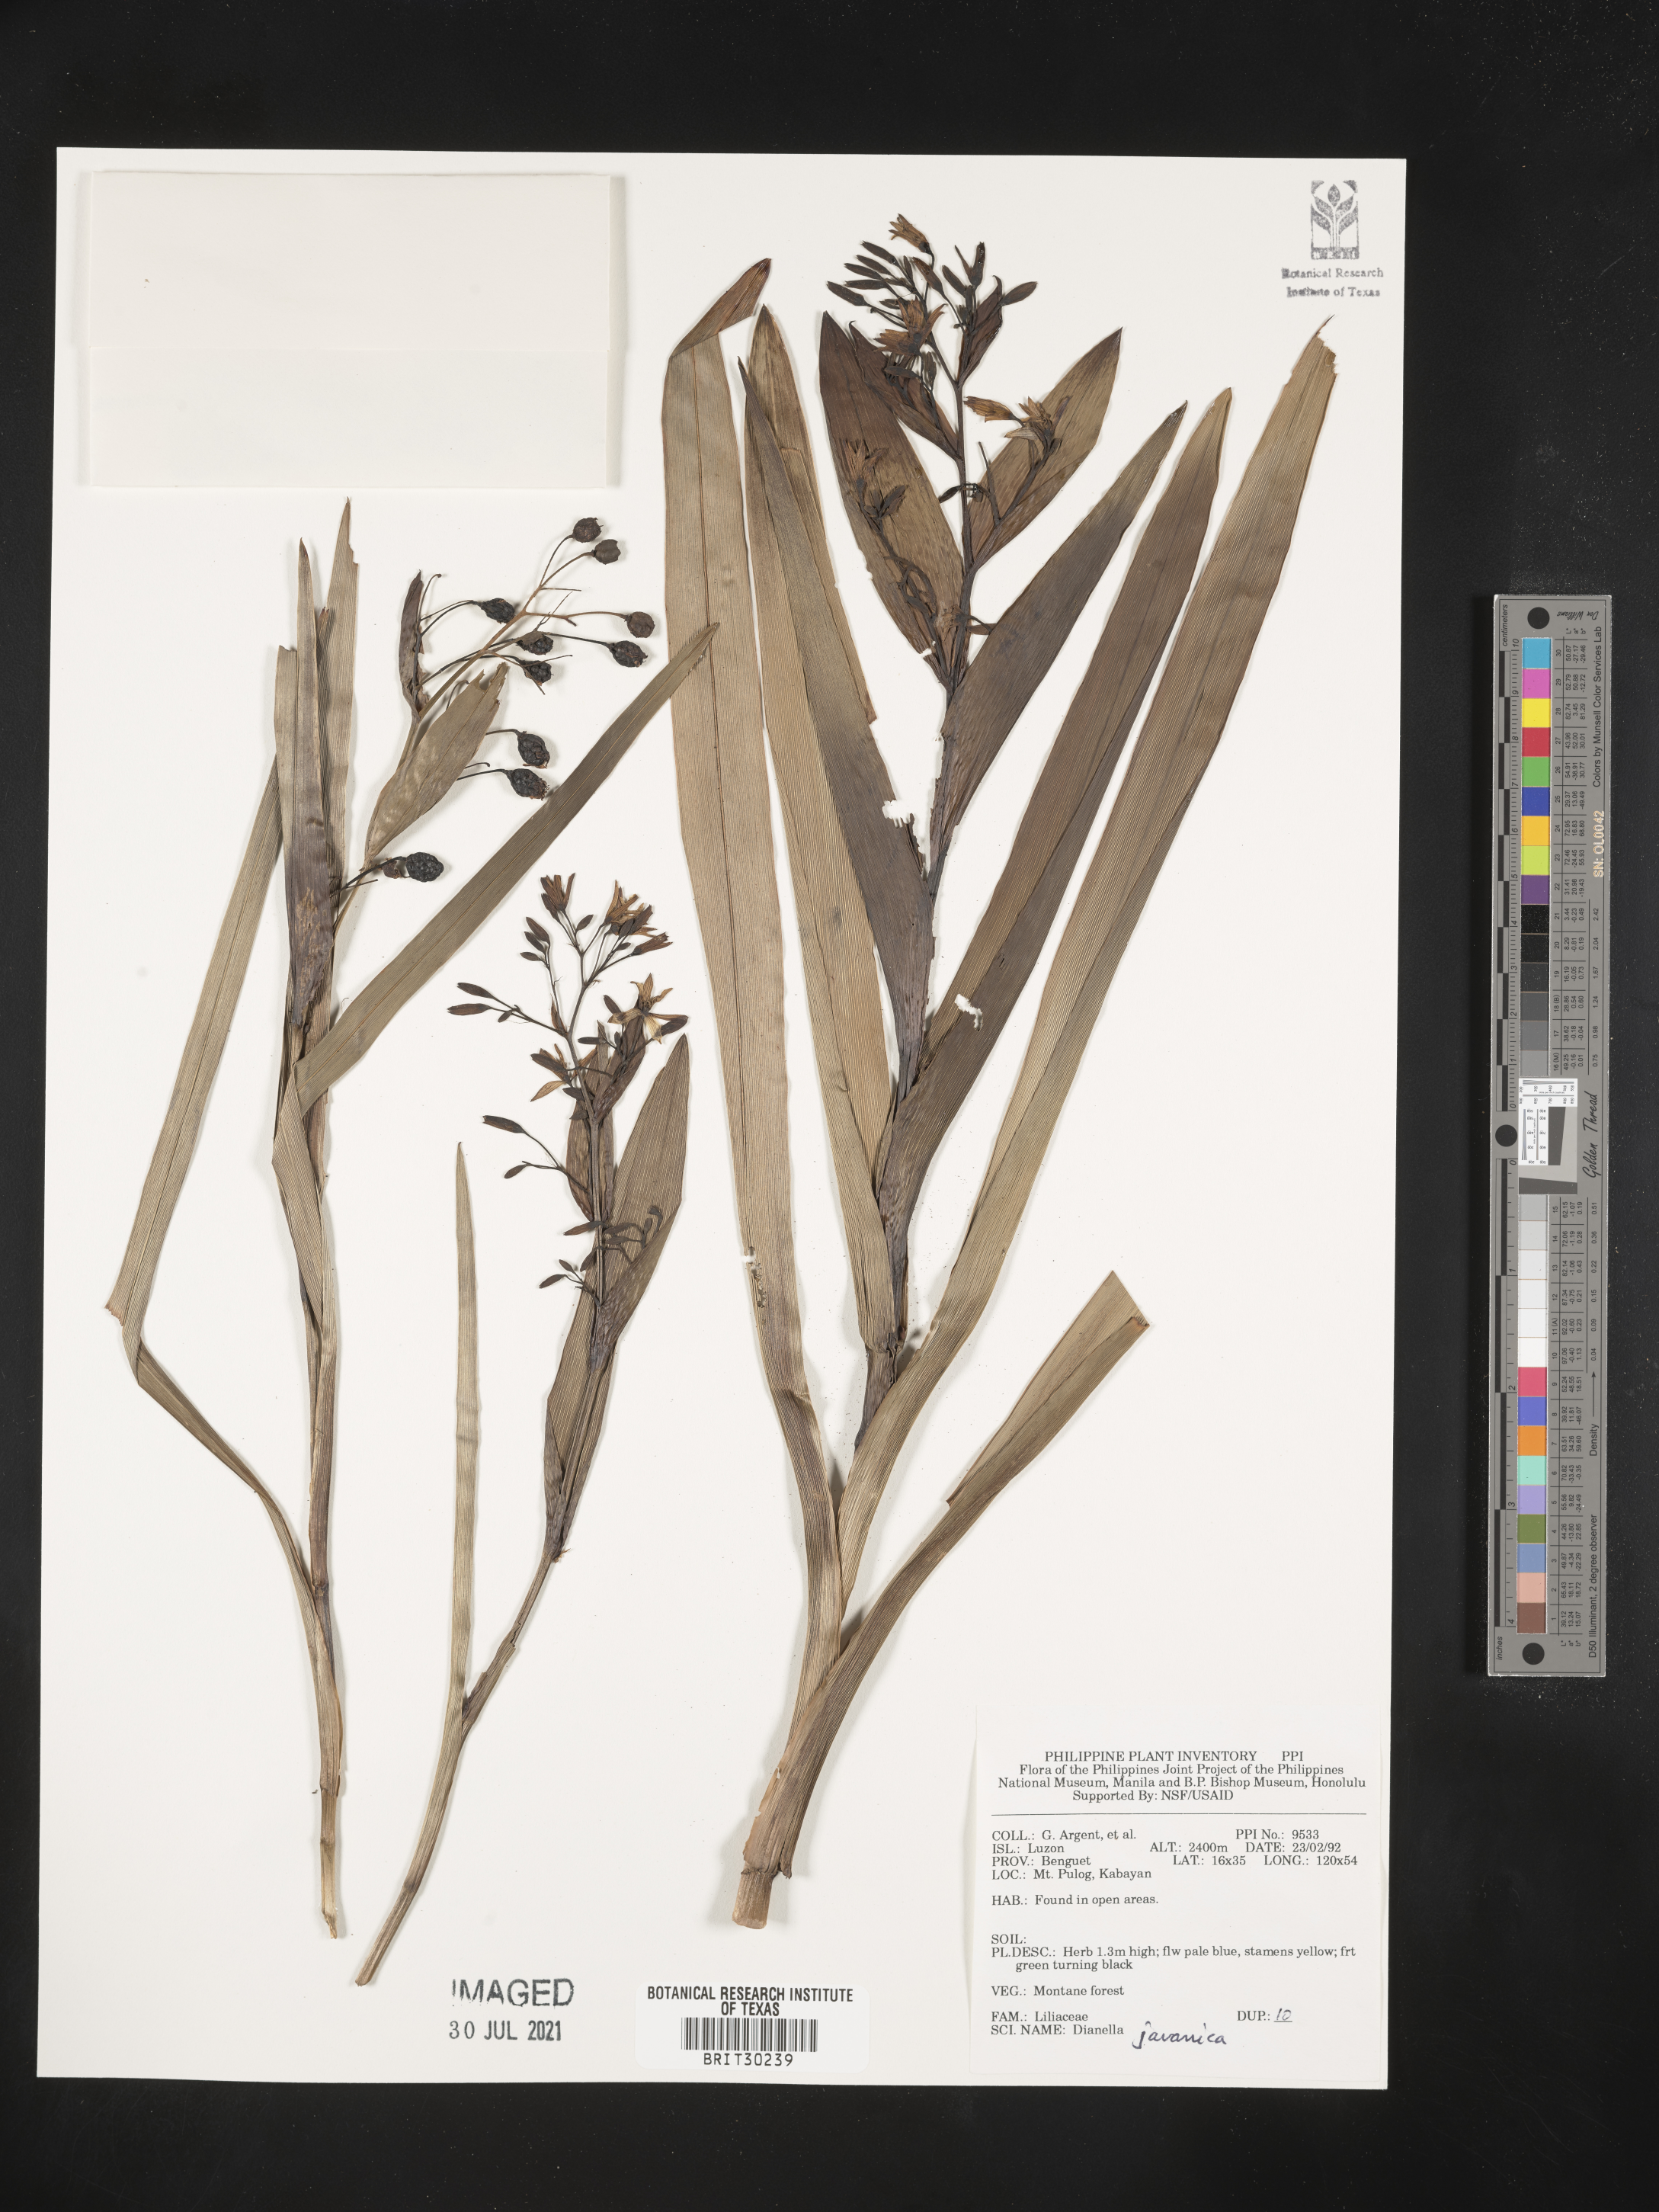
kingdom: Plantae
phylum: Tracheophyta
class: Liliopsida
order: Asparagales
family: Asphodelaceae
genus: Rhuacophila
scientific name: Rhuacophila javanica
